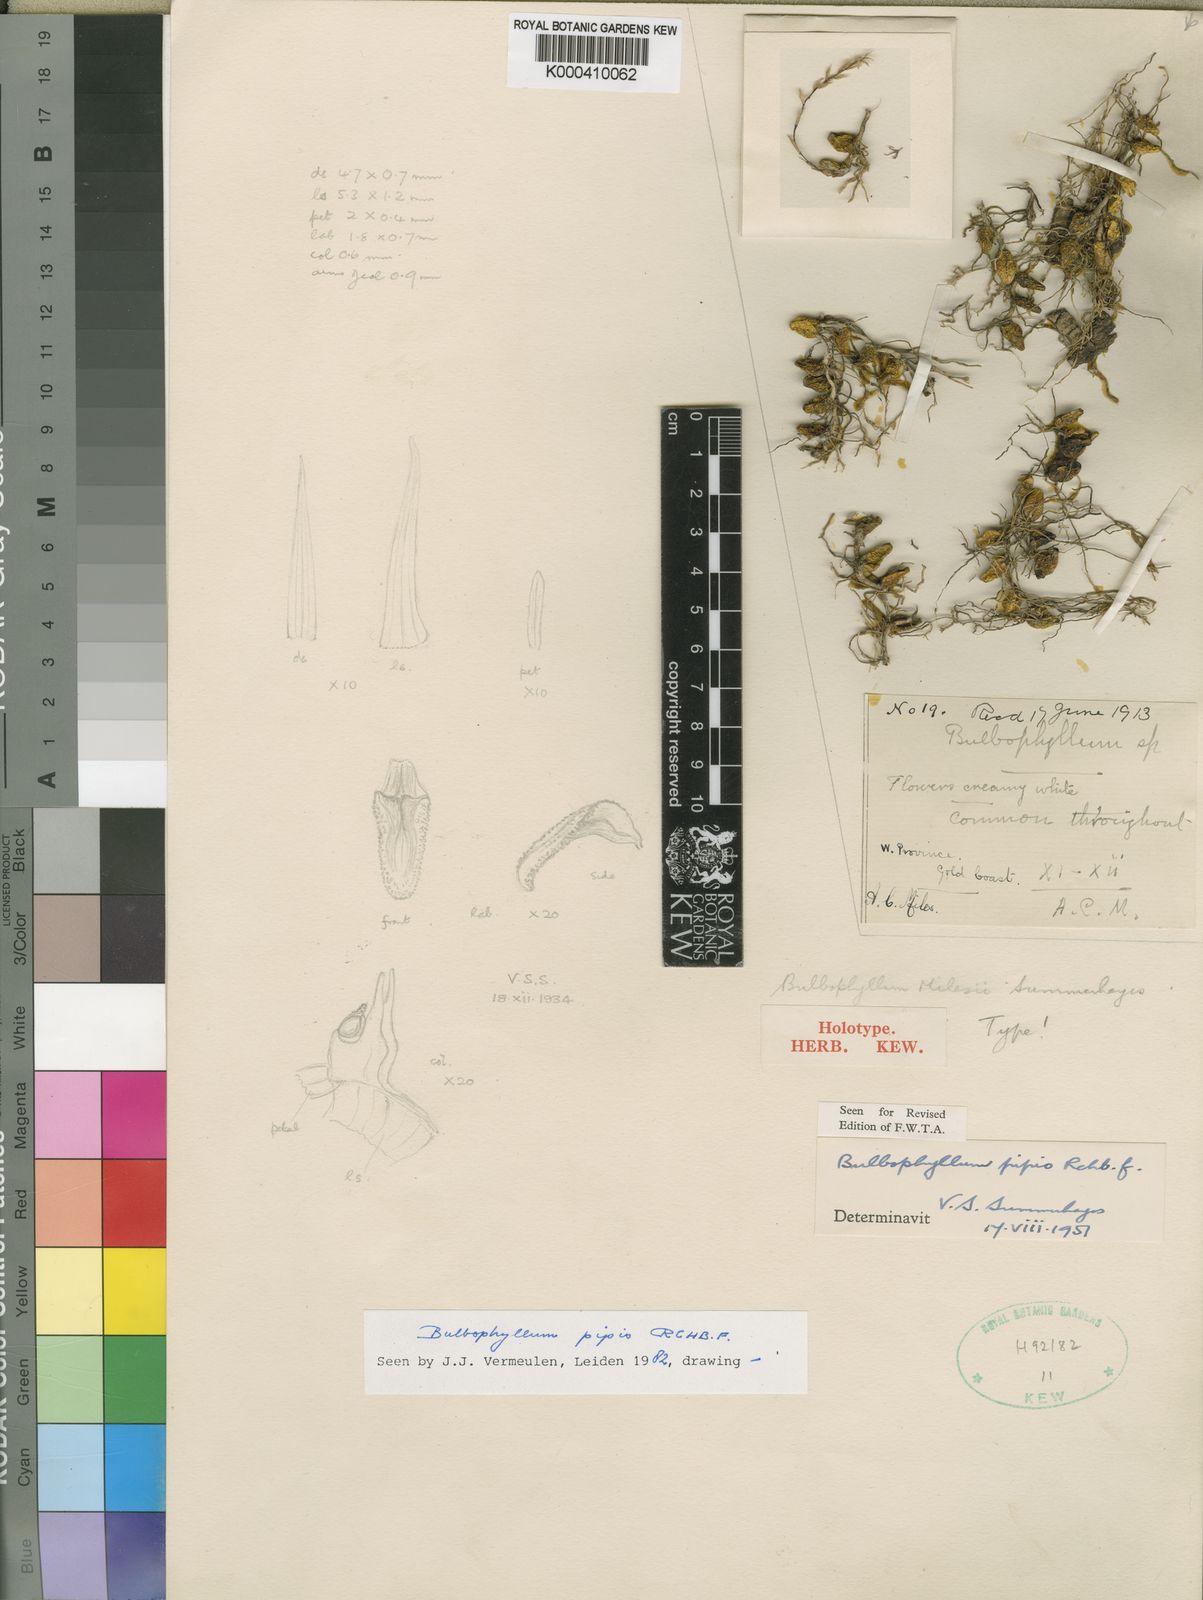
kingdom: Plantae
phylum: Tracheophyta
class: Liliopsida
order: Asparagales
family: Orchidaceae
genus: Bulbophyllum
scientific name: Bulbophyllum pipio
